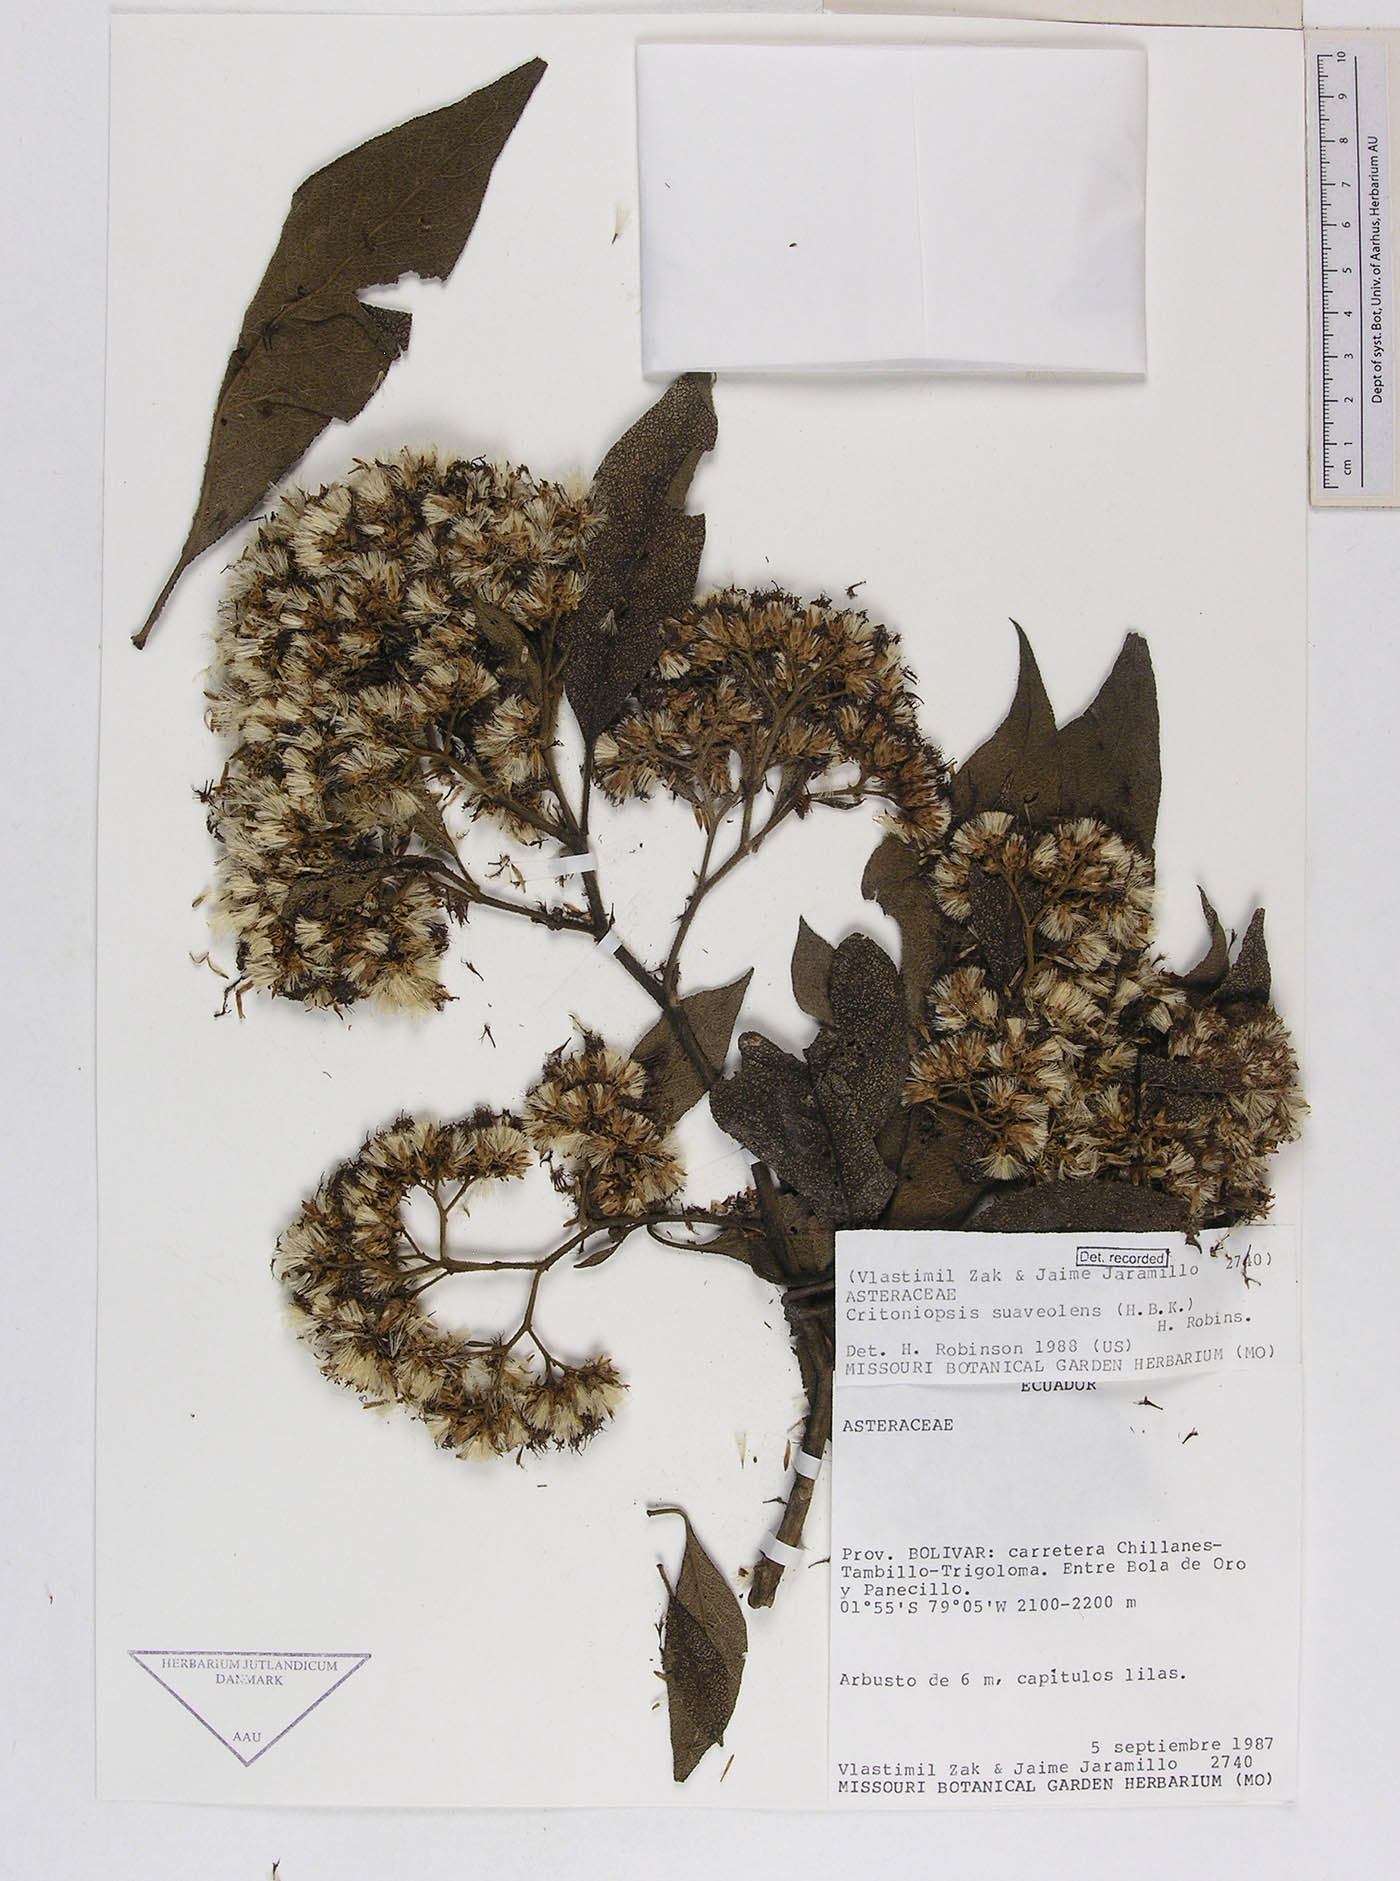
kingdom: Plantae
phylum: Tracheophyta
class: Magnoliopsida
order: Asterales
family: Asteraceae
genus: Critoniopsis
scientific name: Critoniopsis suaveolens
